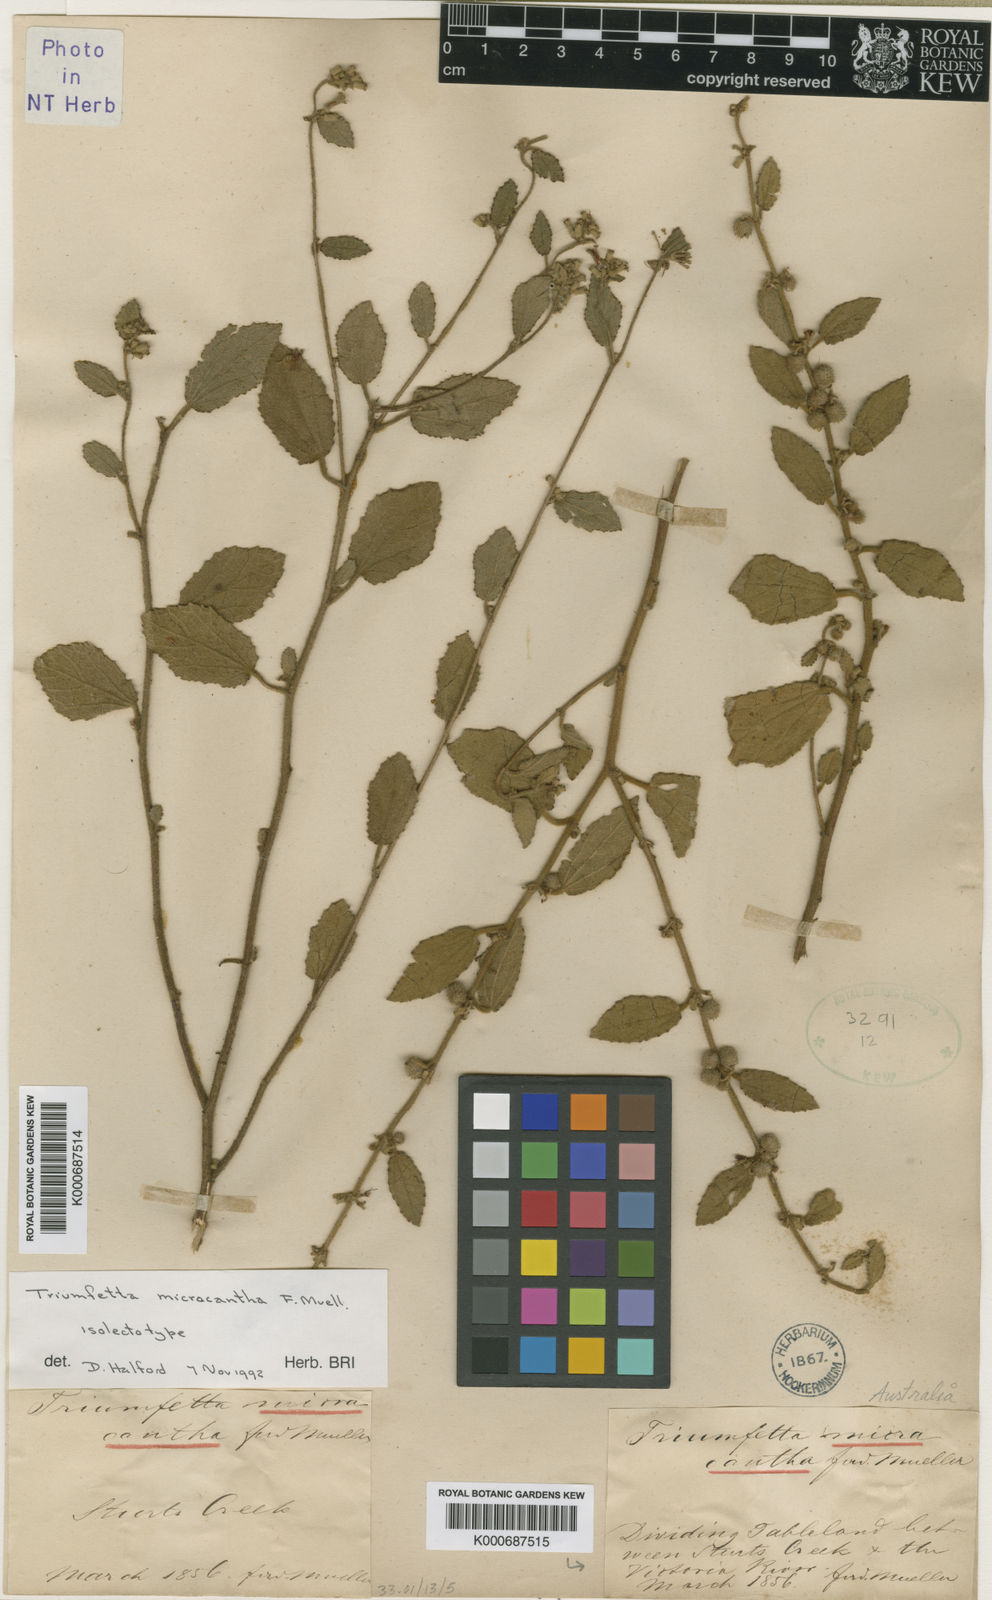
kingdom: Plantae
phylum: Tracheophyta
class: Magnoliopsida
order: Malvales
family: Malvaceae
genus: Triumfetta
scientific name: Triumfetta micracantha
